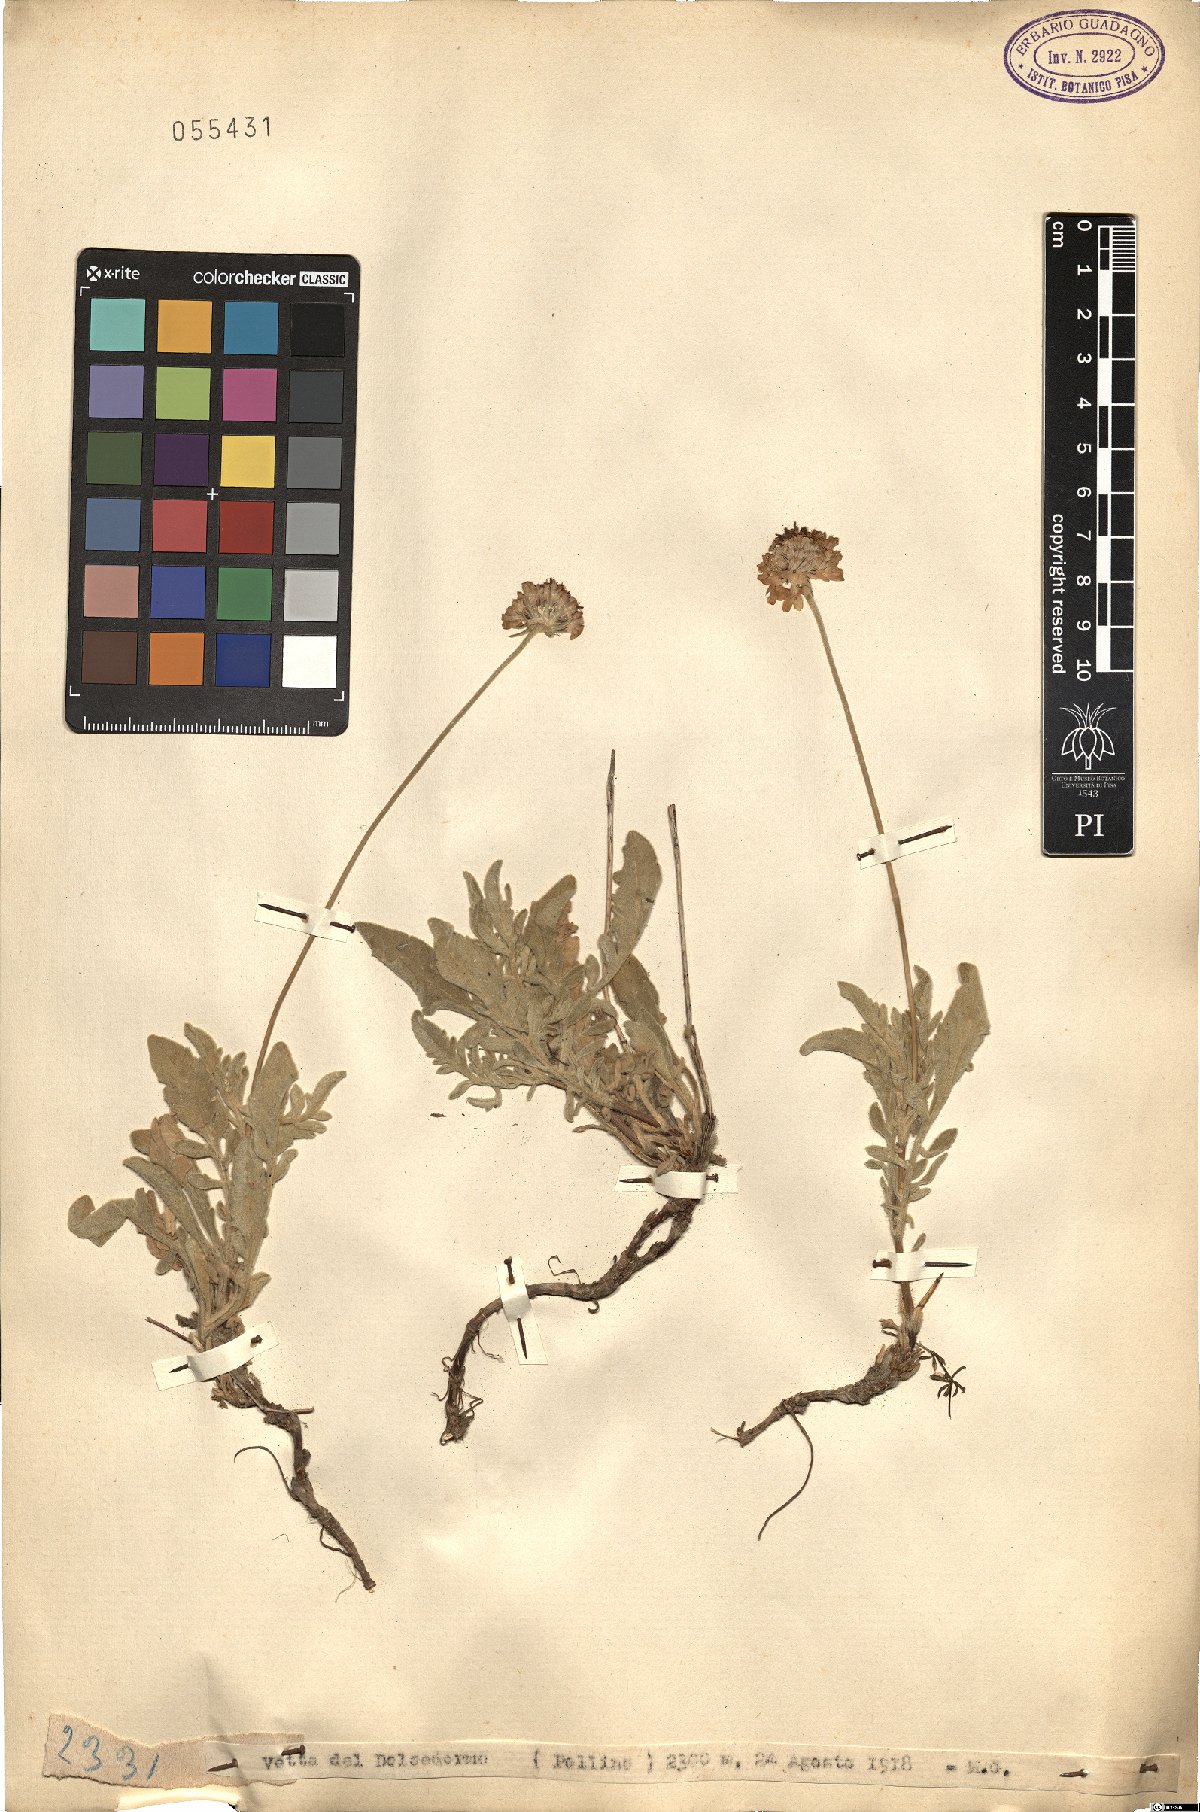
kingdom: Plantae
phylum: Tracheophyta
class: Magnoliopsida
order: Dipsacales
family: Caprifoliaceae
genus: Scabiosa
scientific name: Scabiosa
